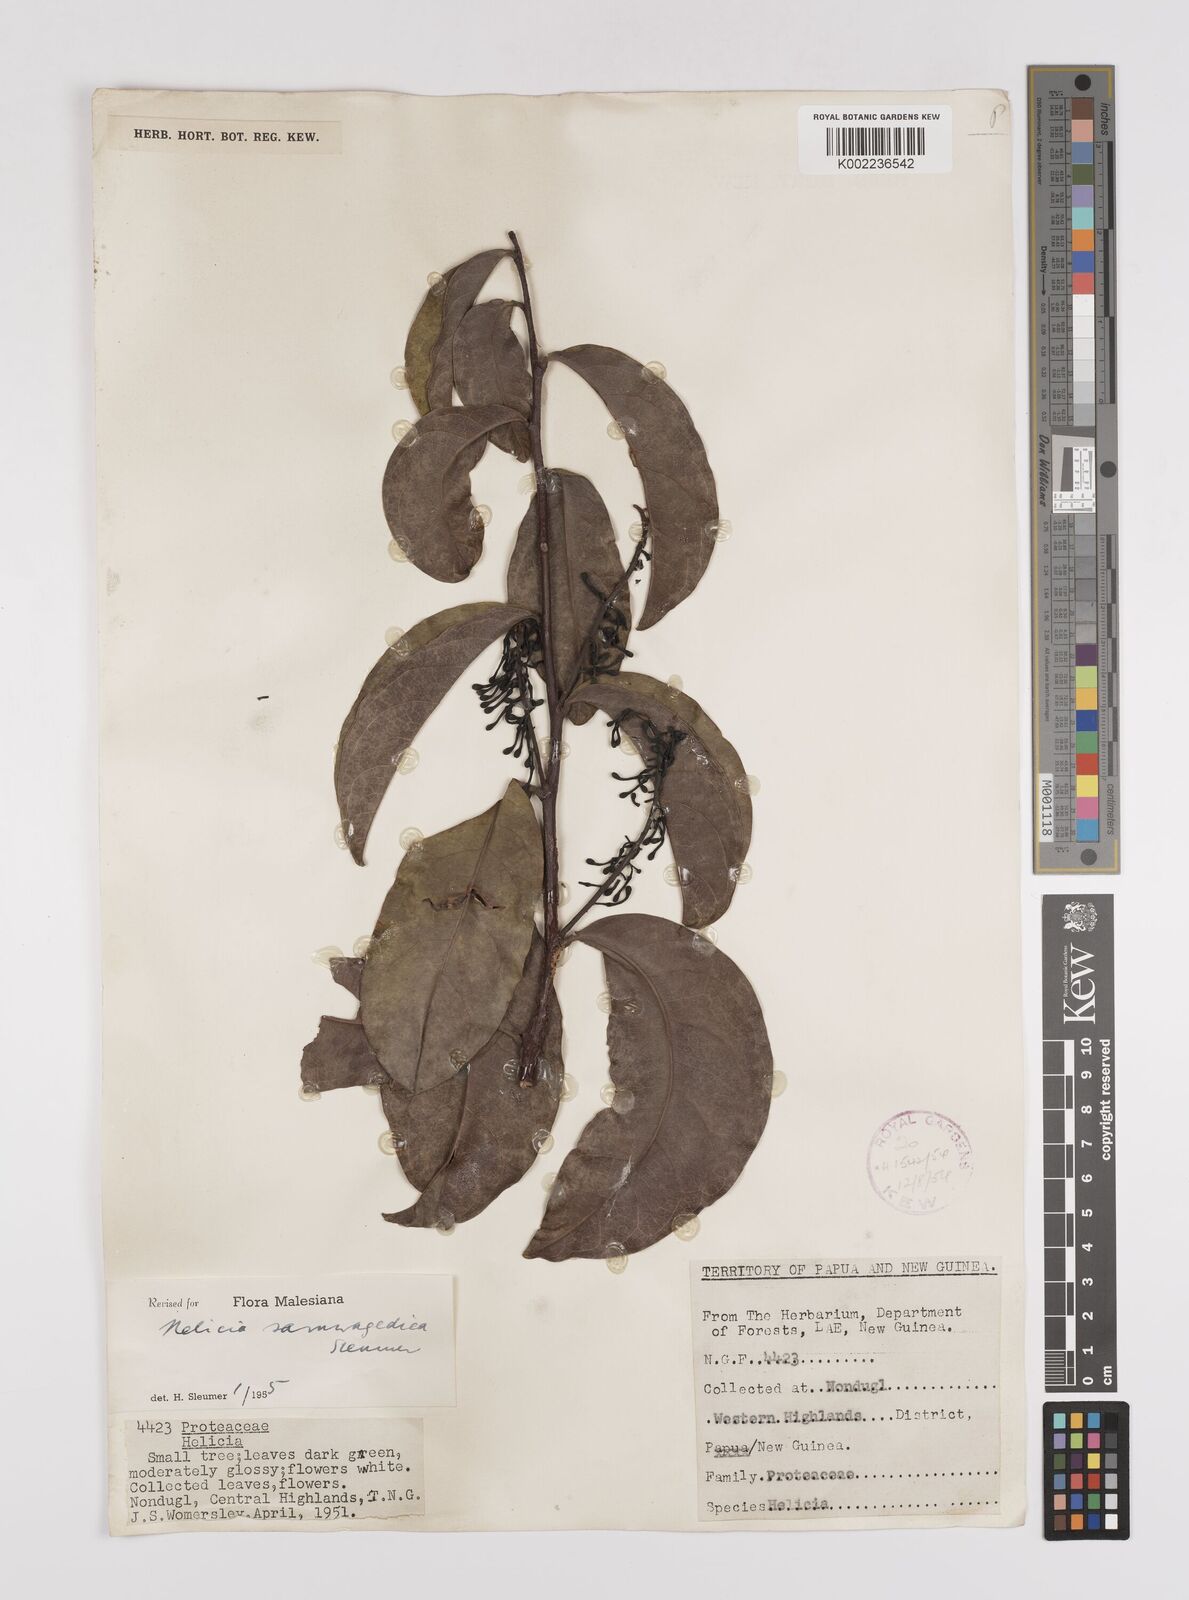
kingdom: Plantae
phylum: Tracheophyta
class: Magnoliopsida
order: Proteales
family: Proteaceae
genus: Helicia
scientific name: Helicia saruwagedica
